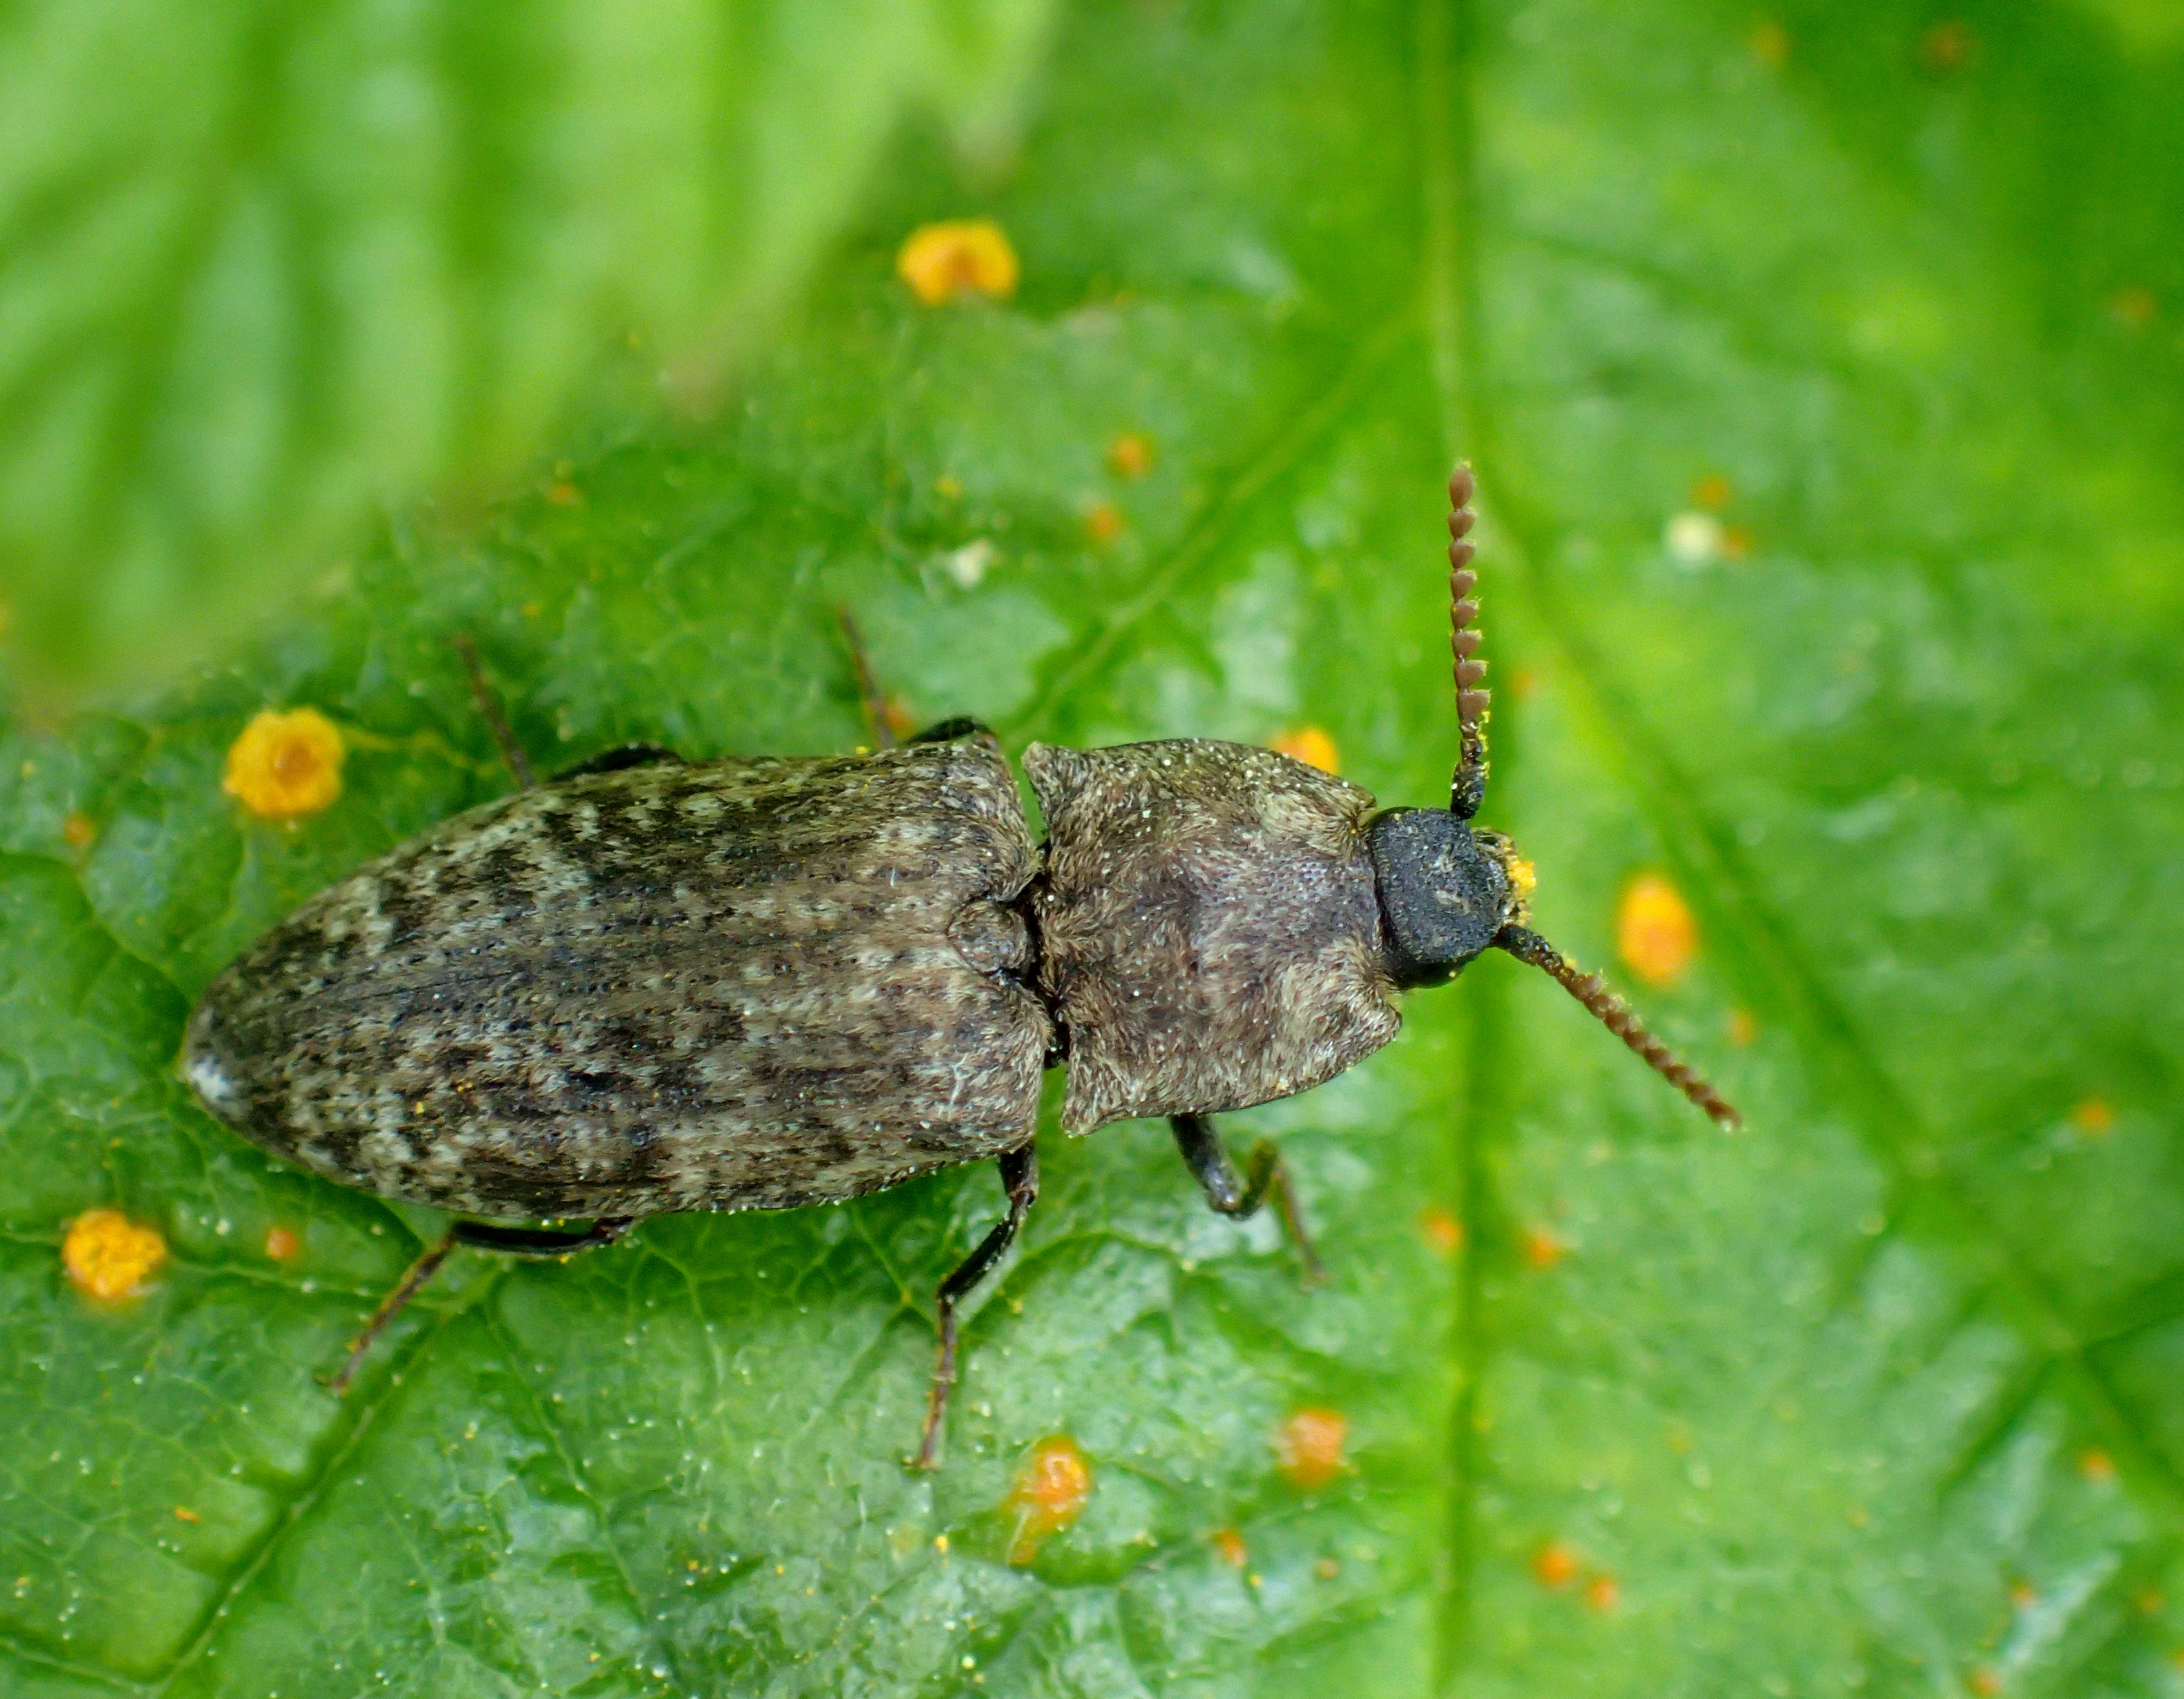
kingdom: Animalia
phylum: Arthropoda
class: Insecta
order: Coleoptera
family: Elateridae
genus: Agrypnus
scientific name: Agrypnus murinus
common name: Musegrå smælder
